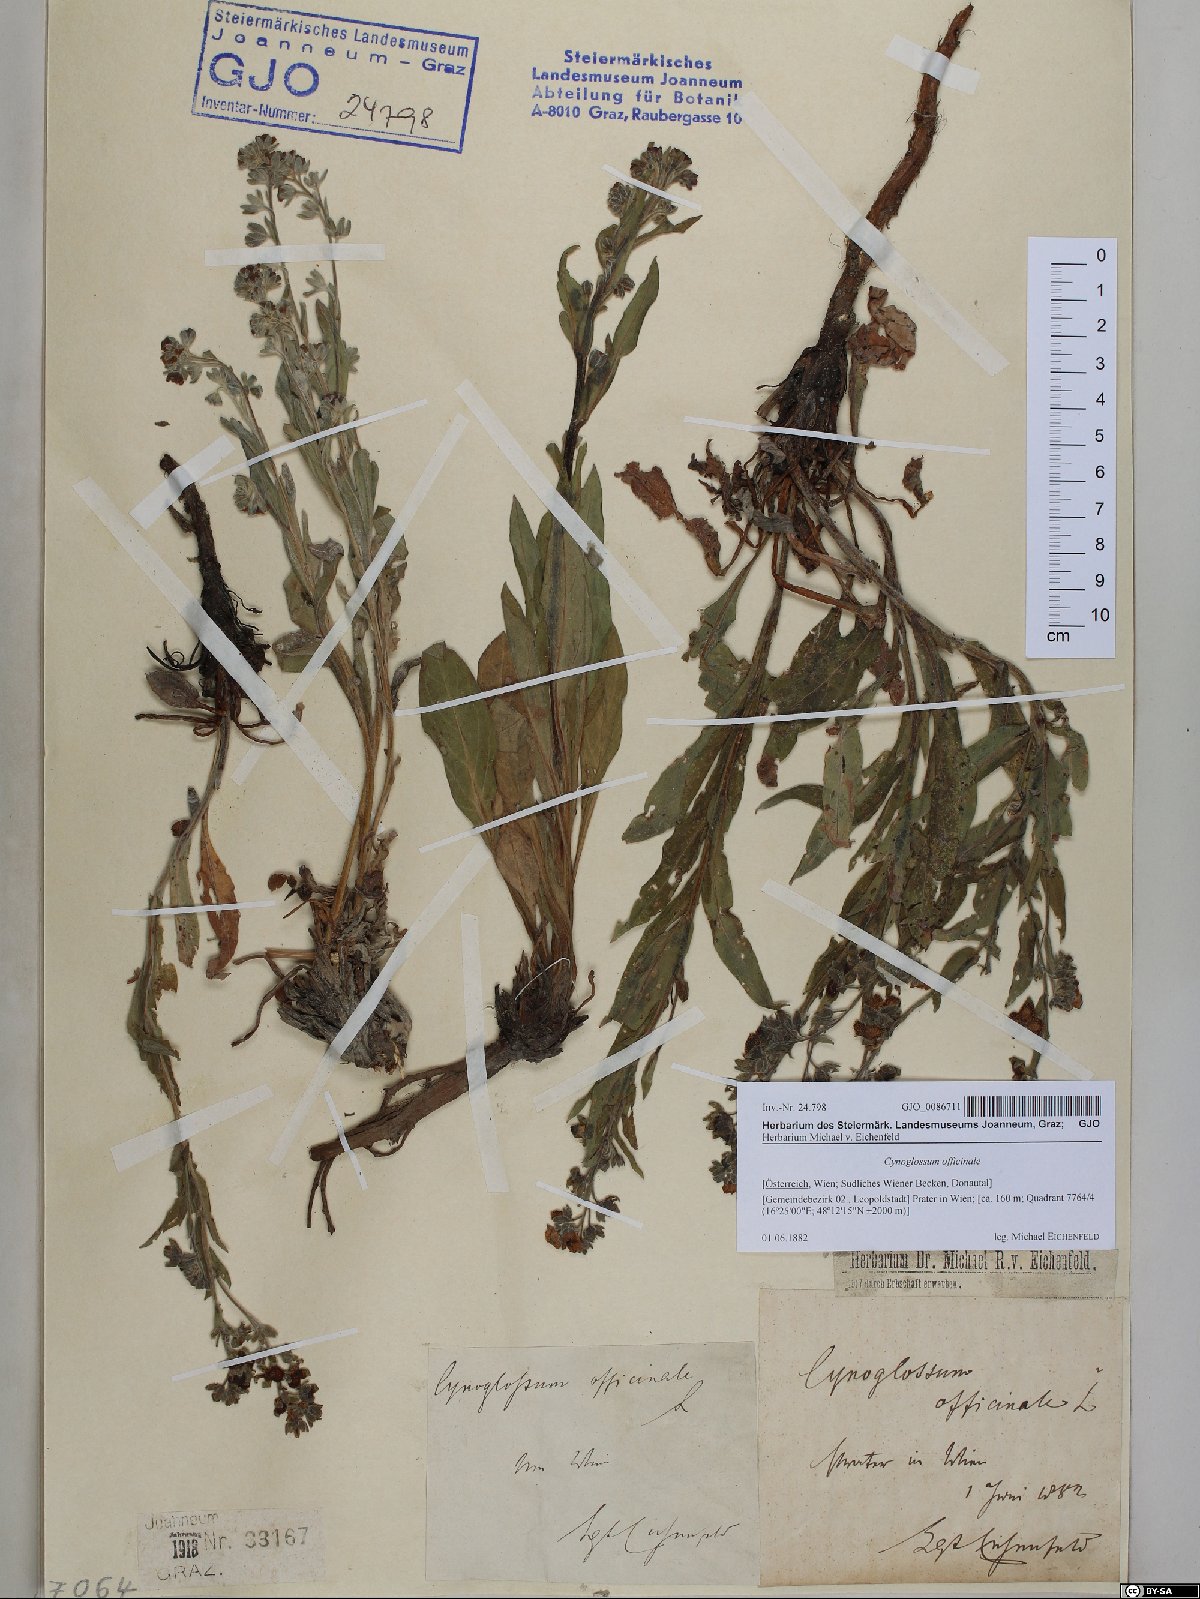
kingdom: Plantae
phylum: Tracheophyta
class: Magnoliopsida
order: Boraginales
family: Boraginaceae
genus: Cynoglossum
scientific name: Cynoglossum officinale
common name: Hound's-tongue
